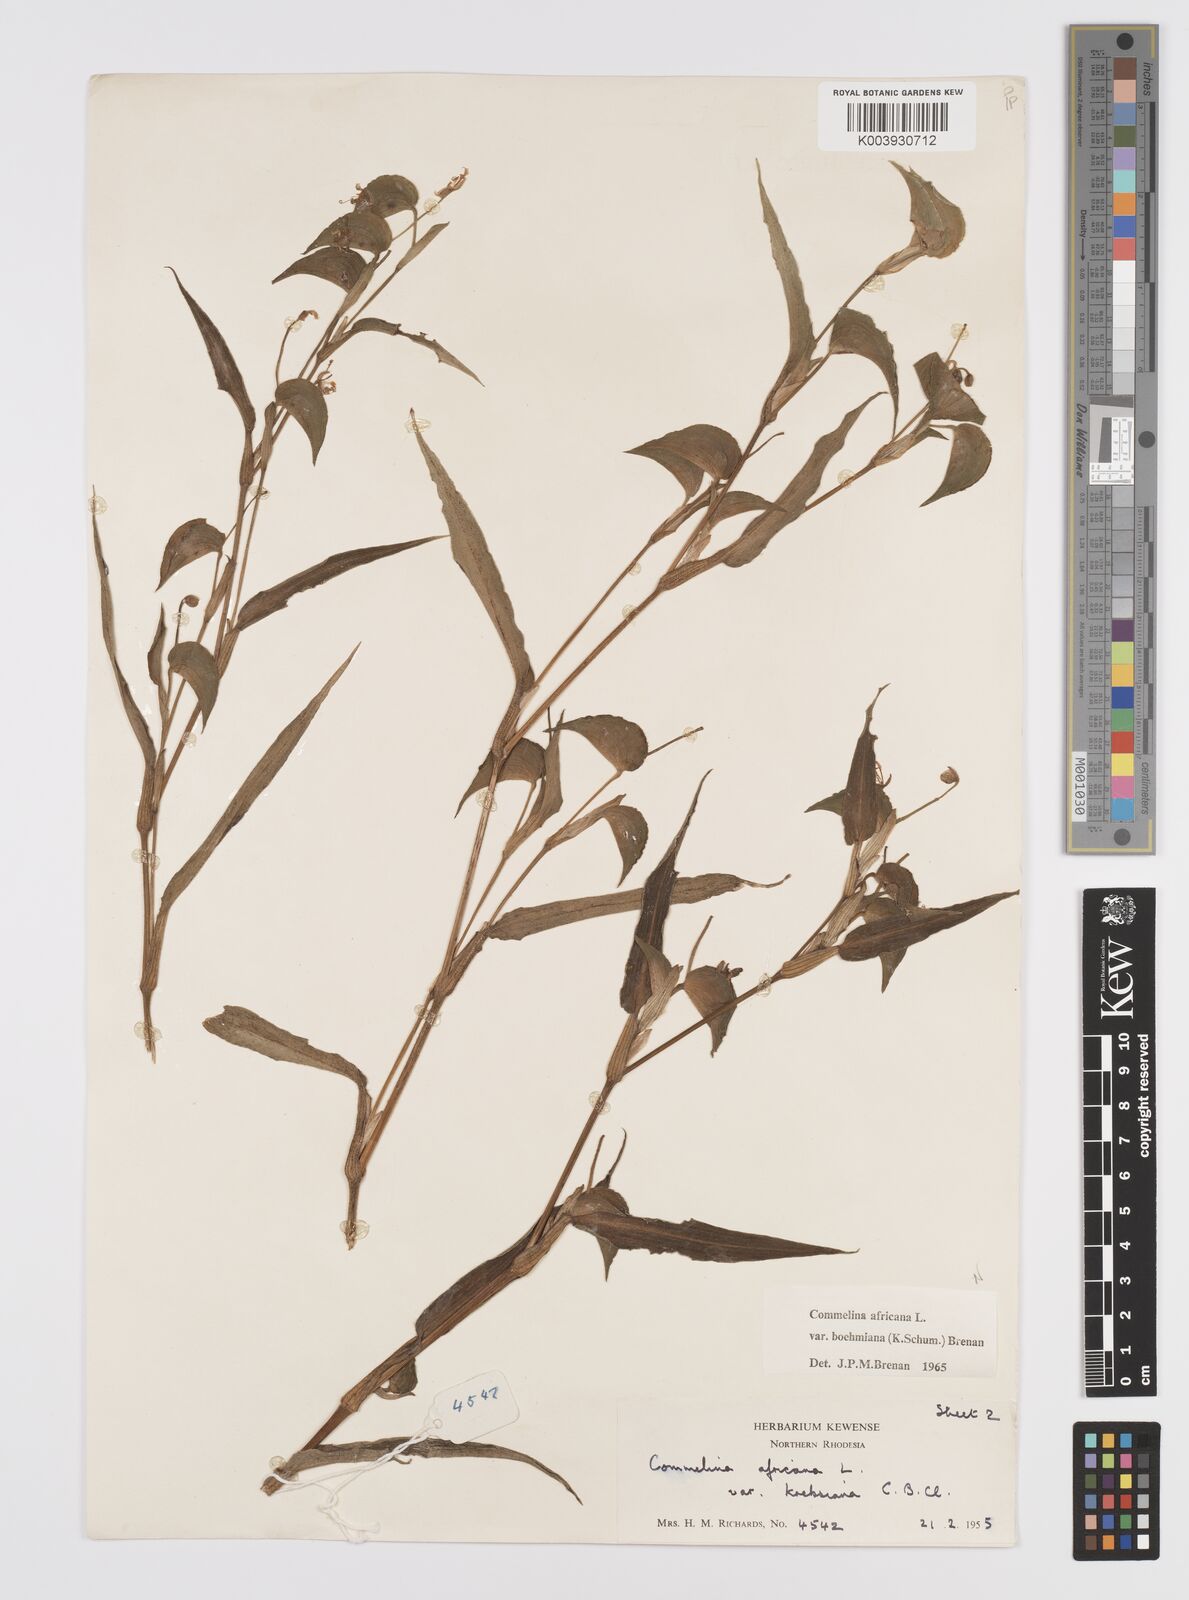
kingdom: Plantae
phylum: Tracheophyta
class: Liliopsida
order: Commelinales
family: Commelinaceae
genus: Commelina
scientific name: Commelina africana
